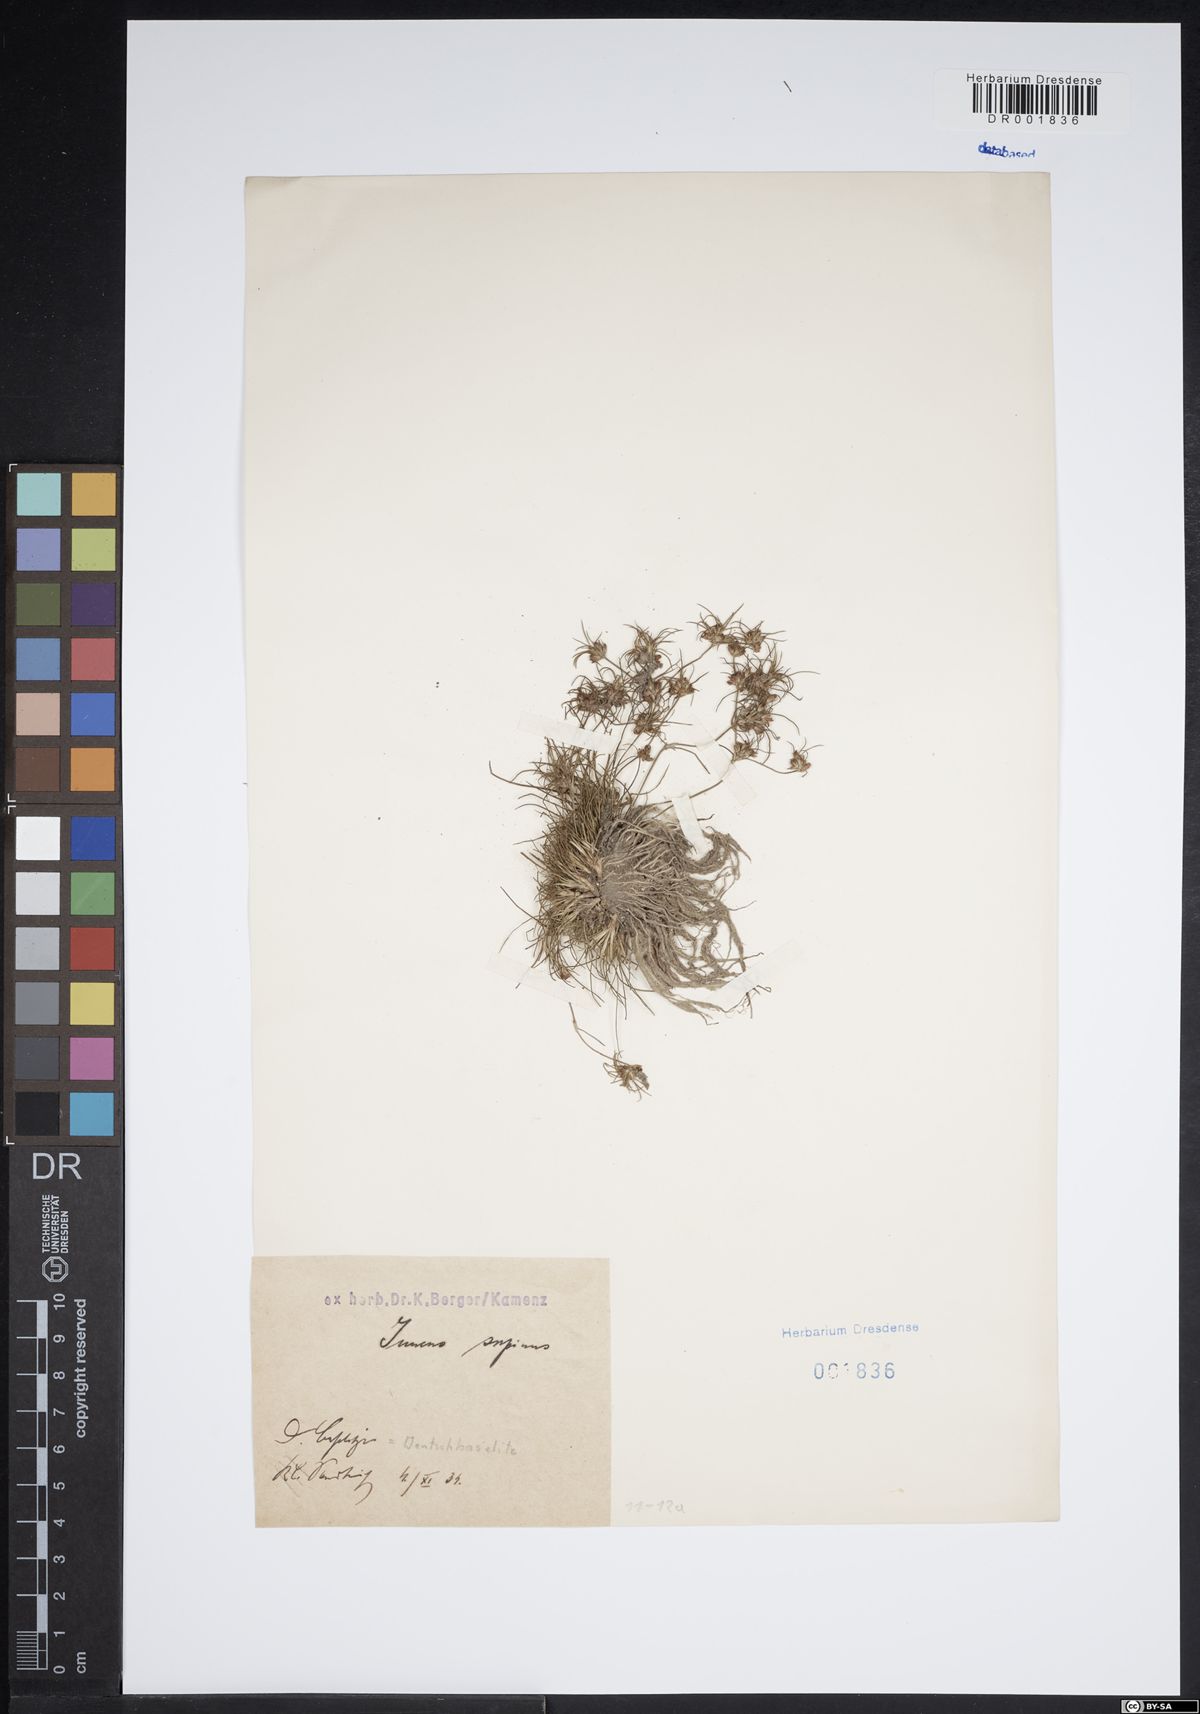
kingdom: Plantae
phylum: Tracheophyta
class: Liliopsida
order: Poales
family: Juncaceae
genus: Juncus
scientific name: Juncus bulbosus
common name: Bulbous rush
